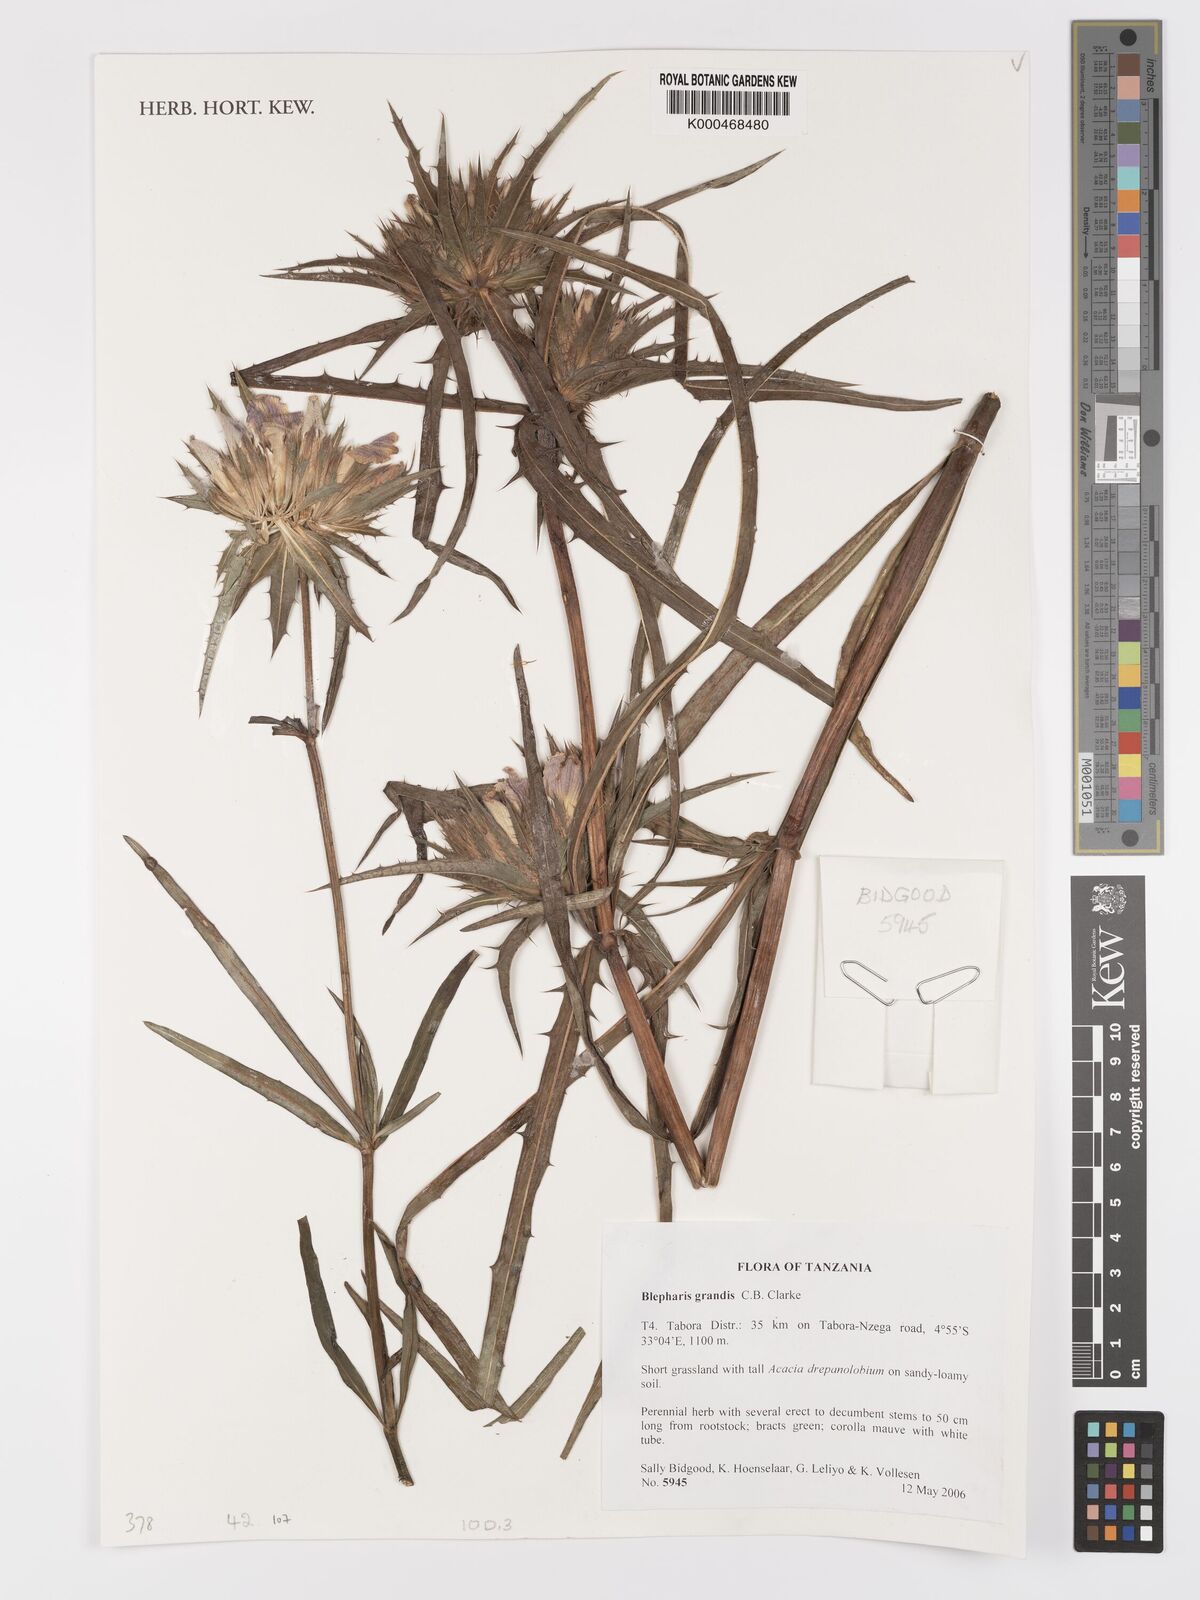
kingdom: Plantae
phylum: Tracheophyta
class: Magnoliopsida
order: Lamiales
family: Acanthaceae
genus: Blepharis
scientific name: Blepharis asteracantha
